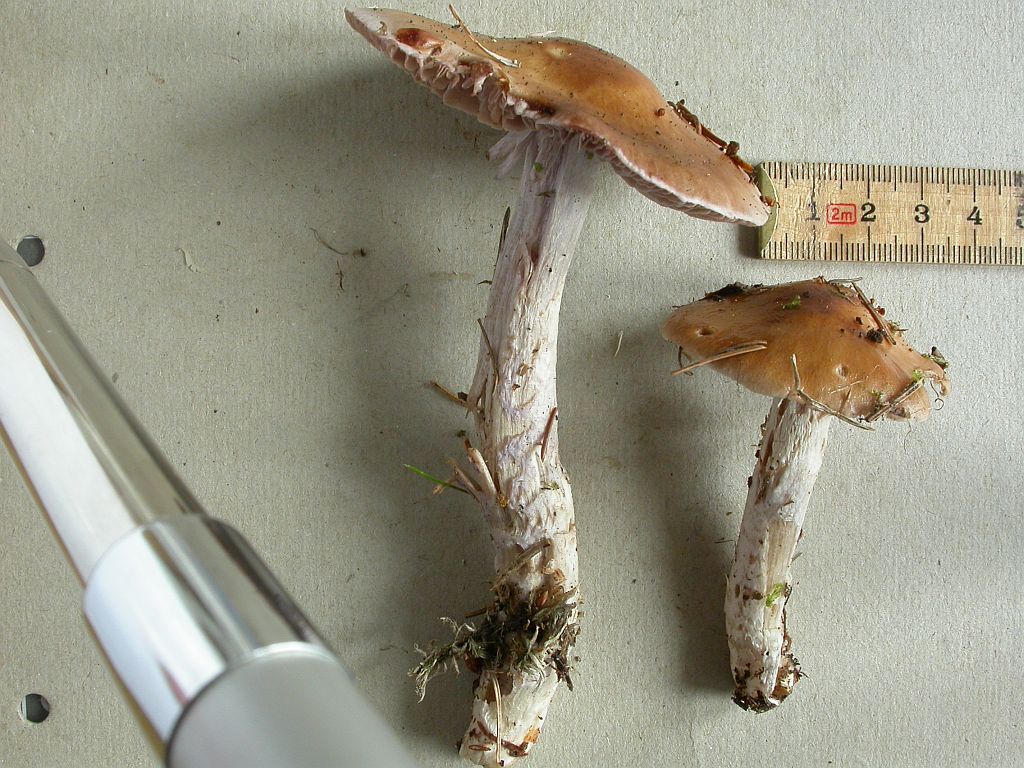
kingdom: Fungi
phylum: Basidiomycota
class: Agaricomycetes
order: Agaricales
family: Cortinariaceae
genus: Cortinarius
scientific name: Cortinarius stillatitius
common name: honningduftende slørhat
